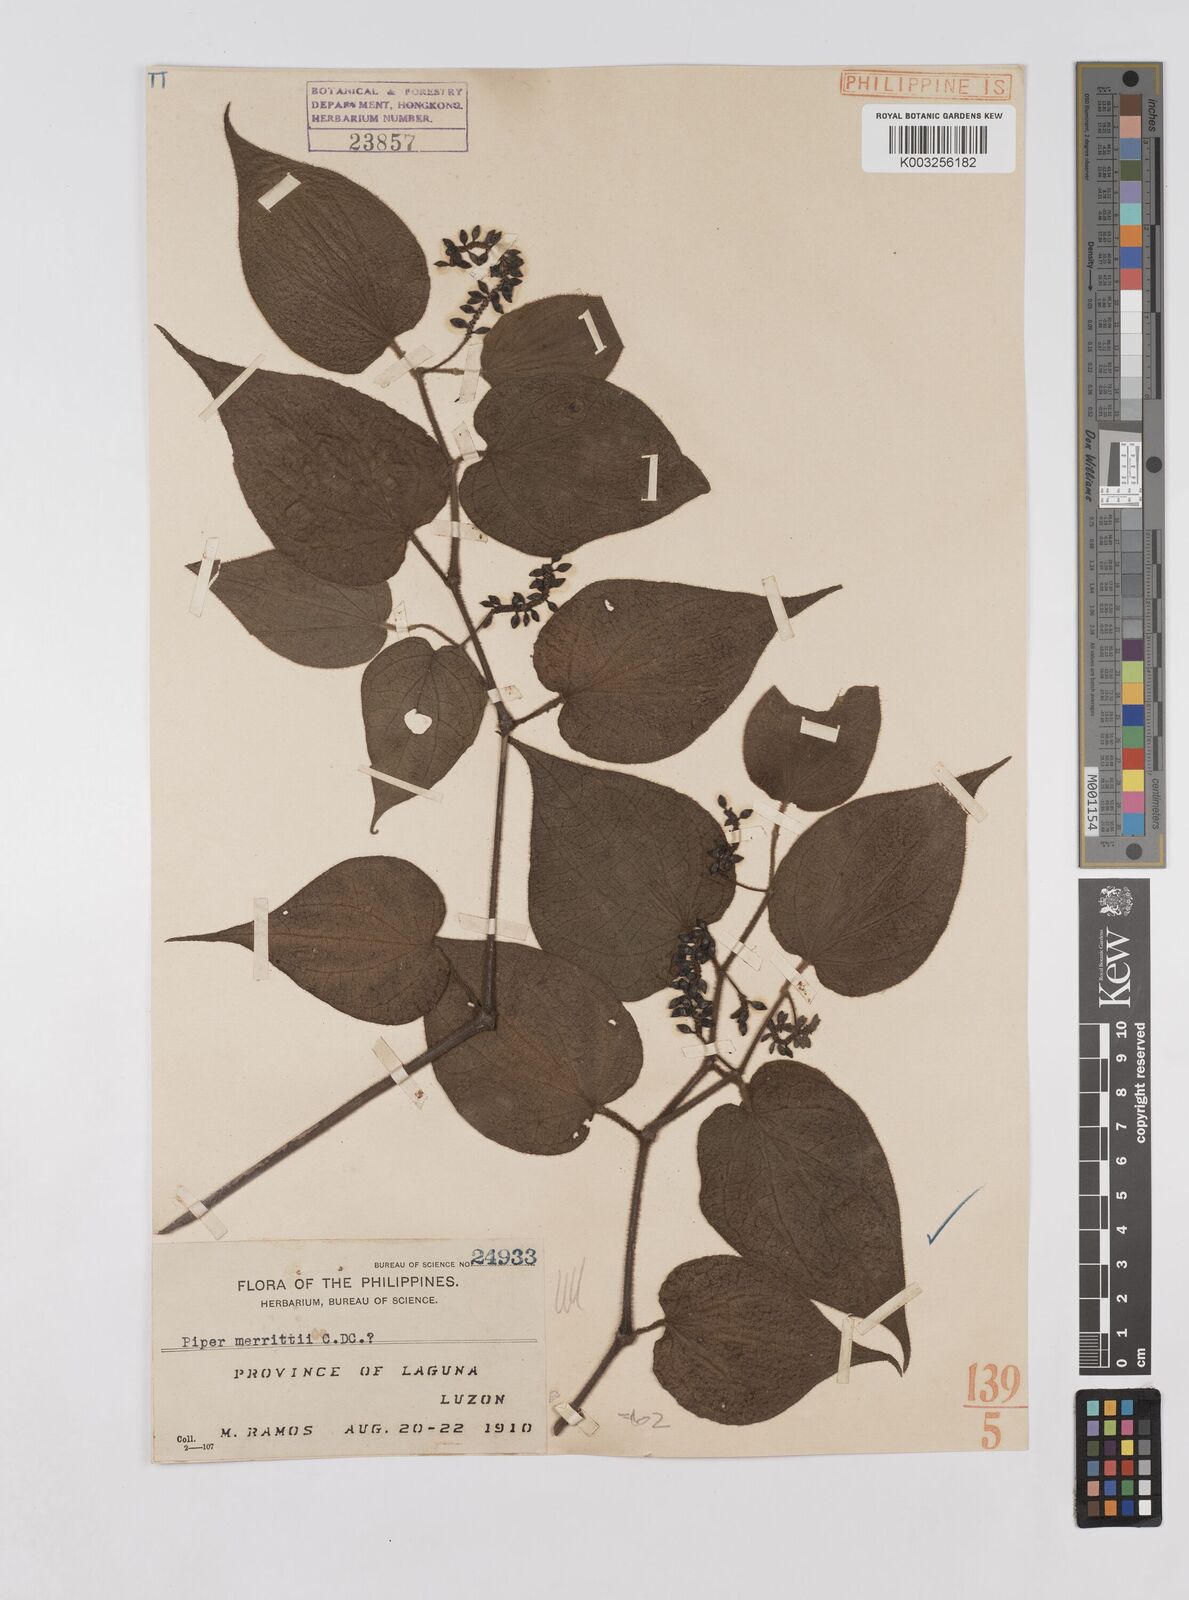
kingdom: Plantae
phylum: Tracheophyta
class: Magnoliopsida
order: Piperales
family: Piperaceae
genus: Piper
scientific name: Piper lanatum
